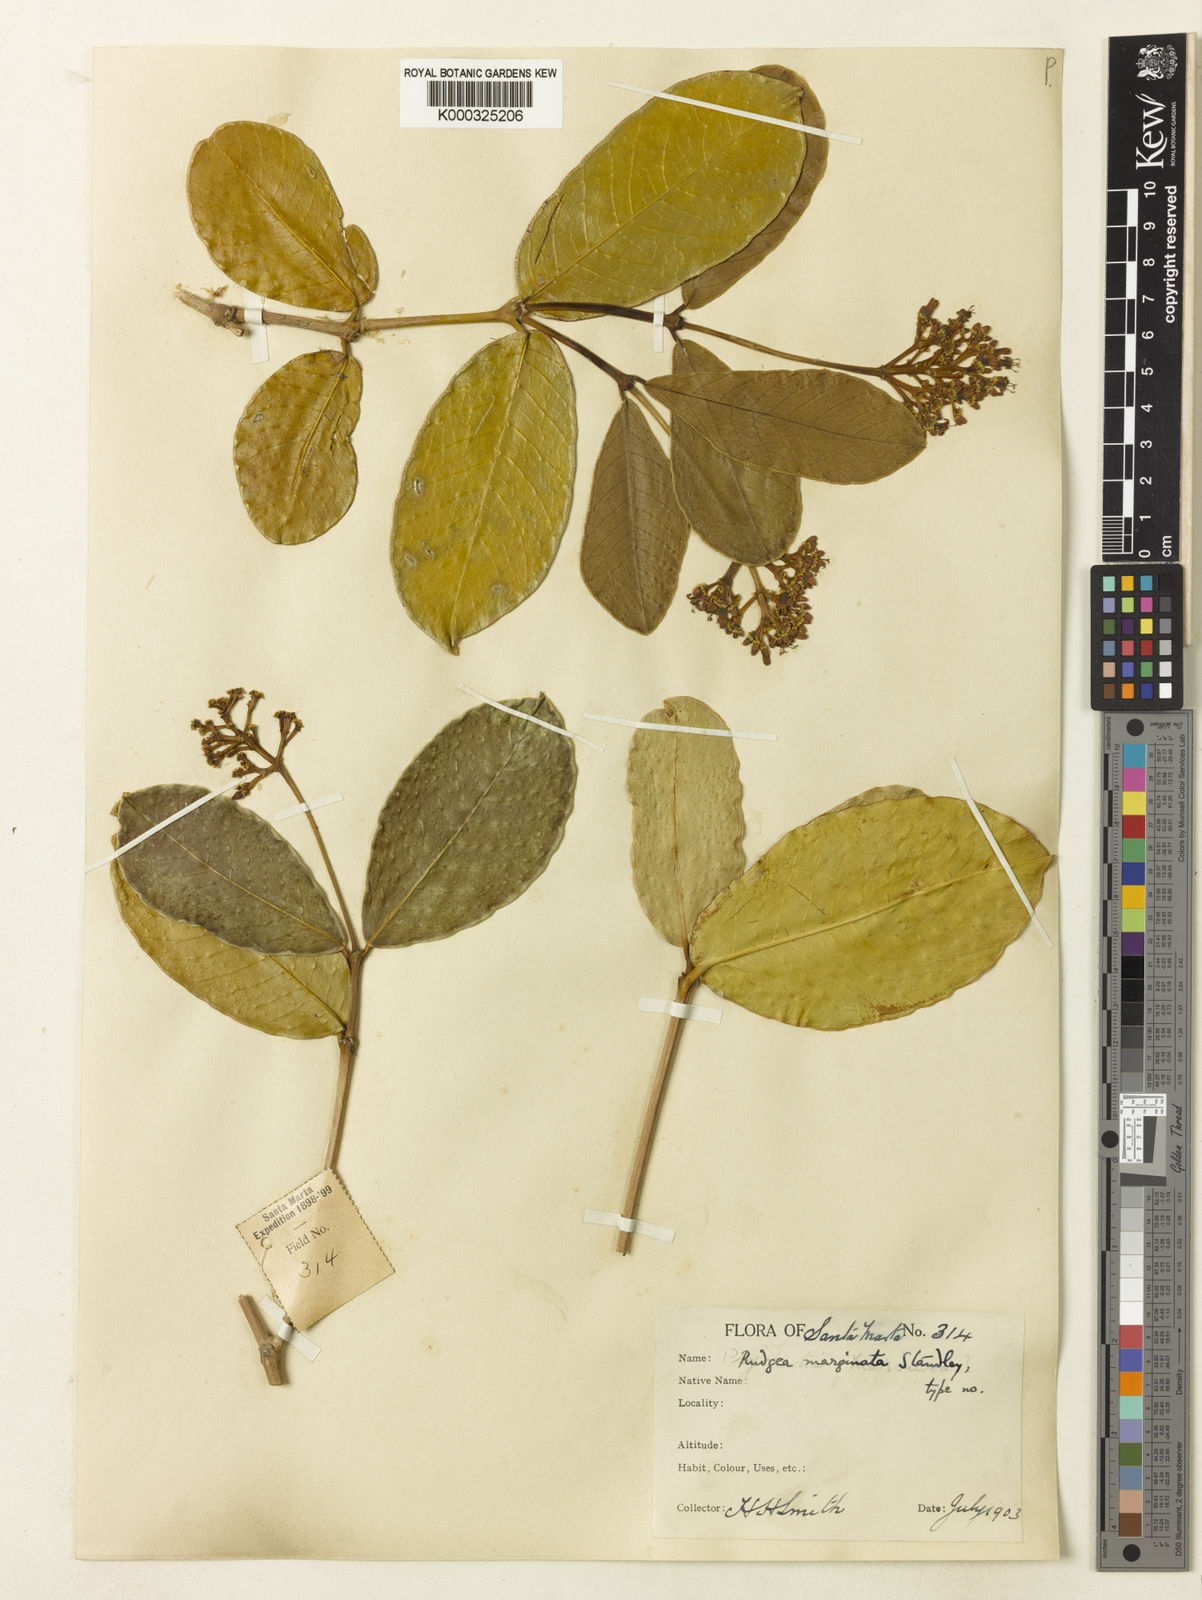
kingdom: Plantae
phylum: Tracheophyta
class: Magnoliopsida
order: Gentianales
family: Rubiaceae
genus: Rudgea
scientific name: Rudgea marginata
